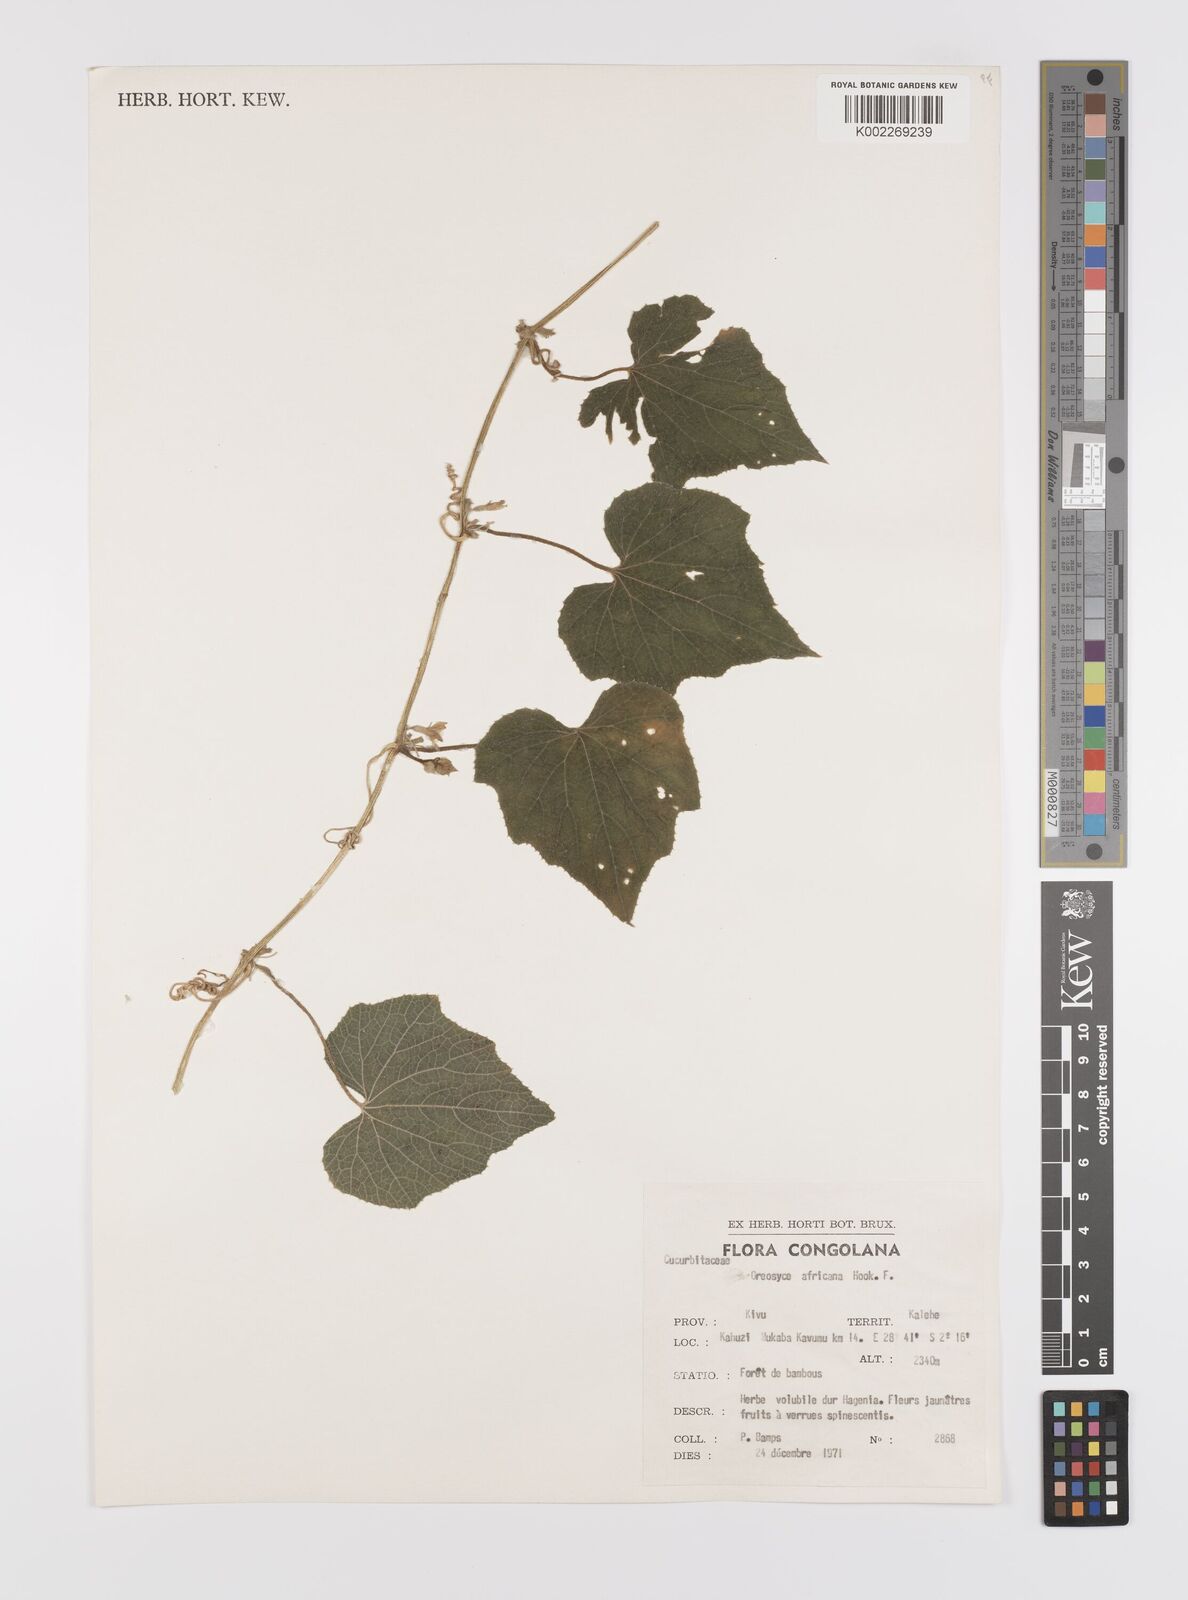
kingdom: Plantae
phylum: Tracheophyta
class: Magnoliopsida
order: Cucurbitales
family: Cucurbitaceae
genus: Cucumis
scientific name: Cucumis oreosyce
